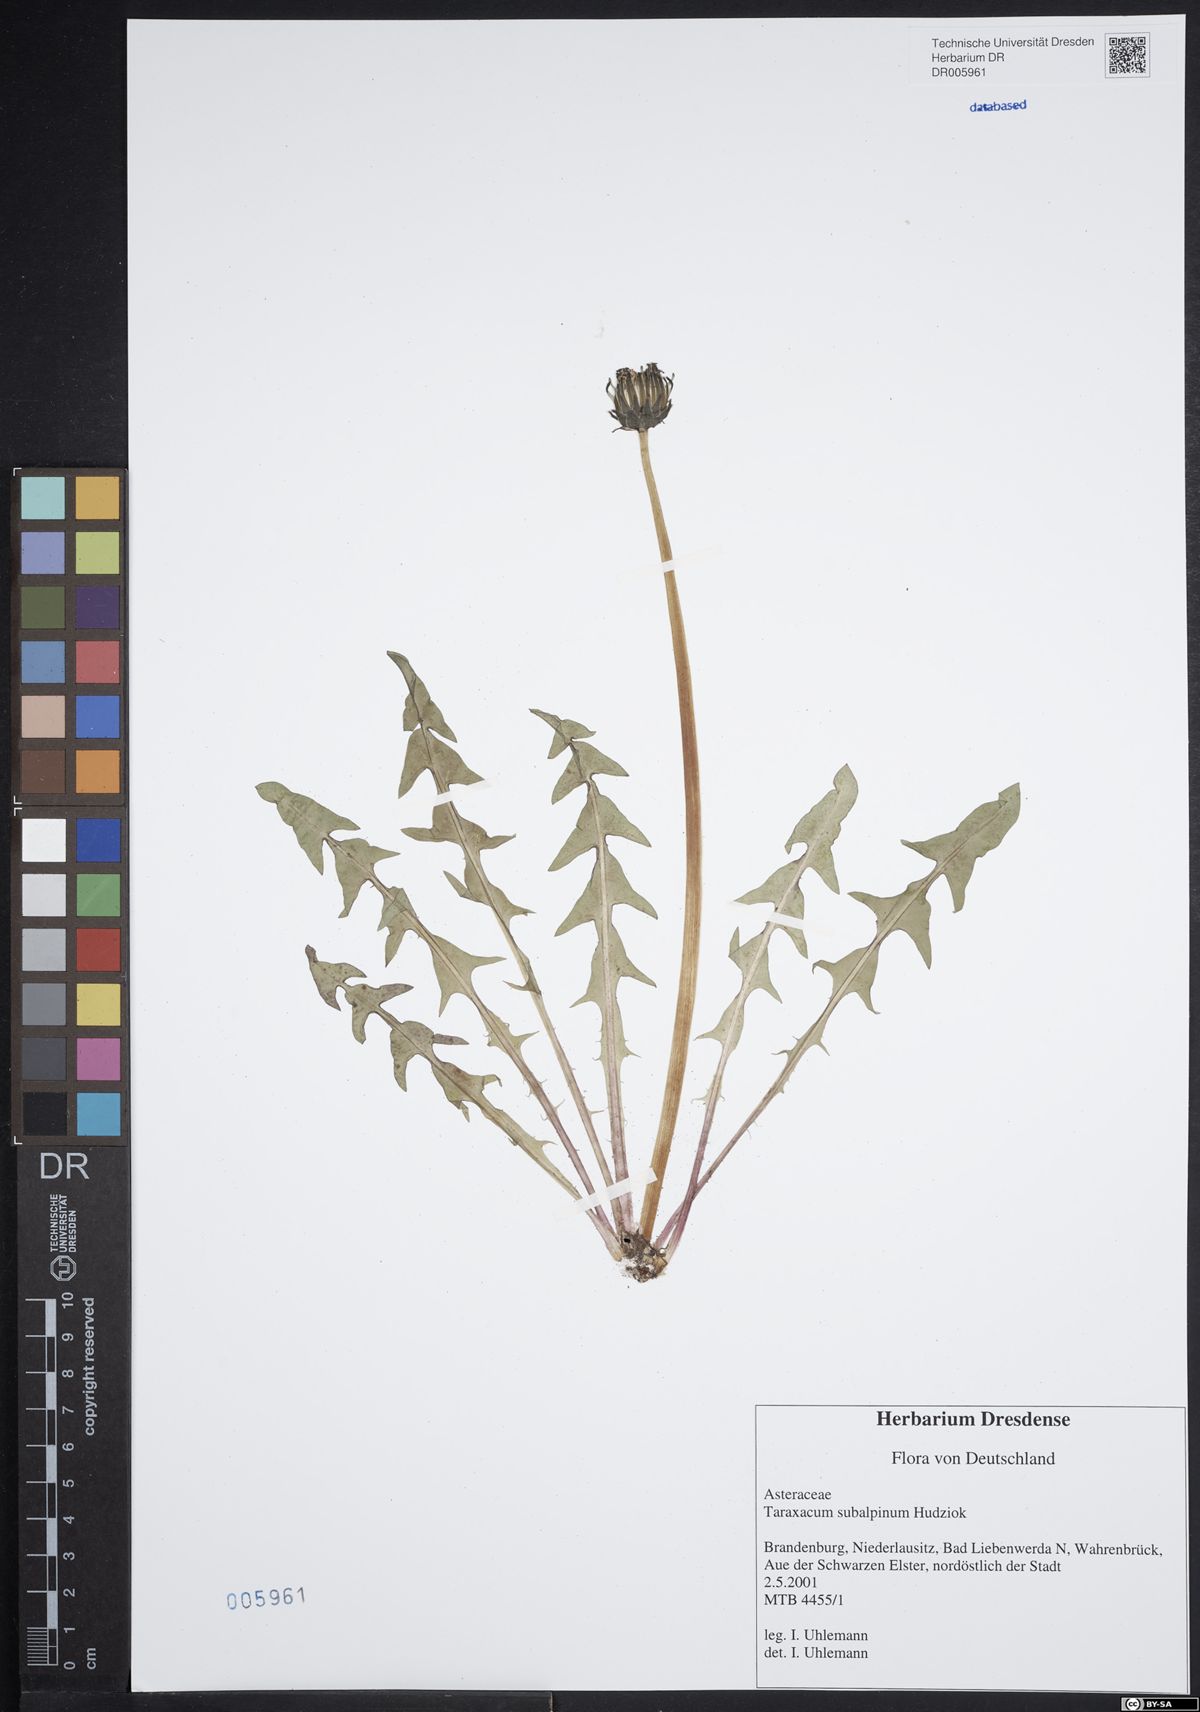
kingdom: Plantae
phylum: Tracheophyta
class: Magnoliopsida
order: Asterales
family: Asteraceae
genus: Taraxacum
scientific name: Taraxacum subalpinum
